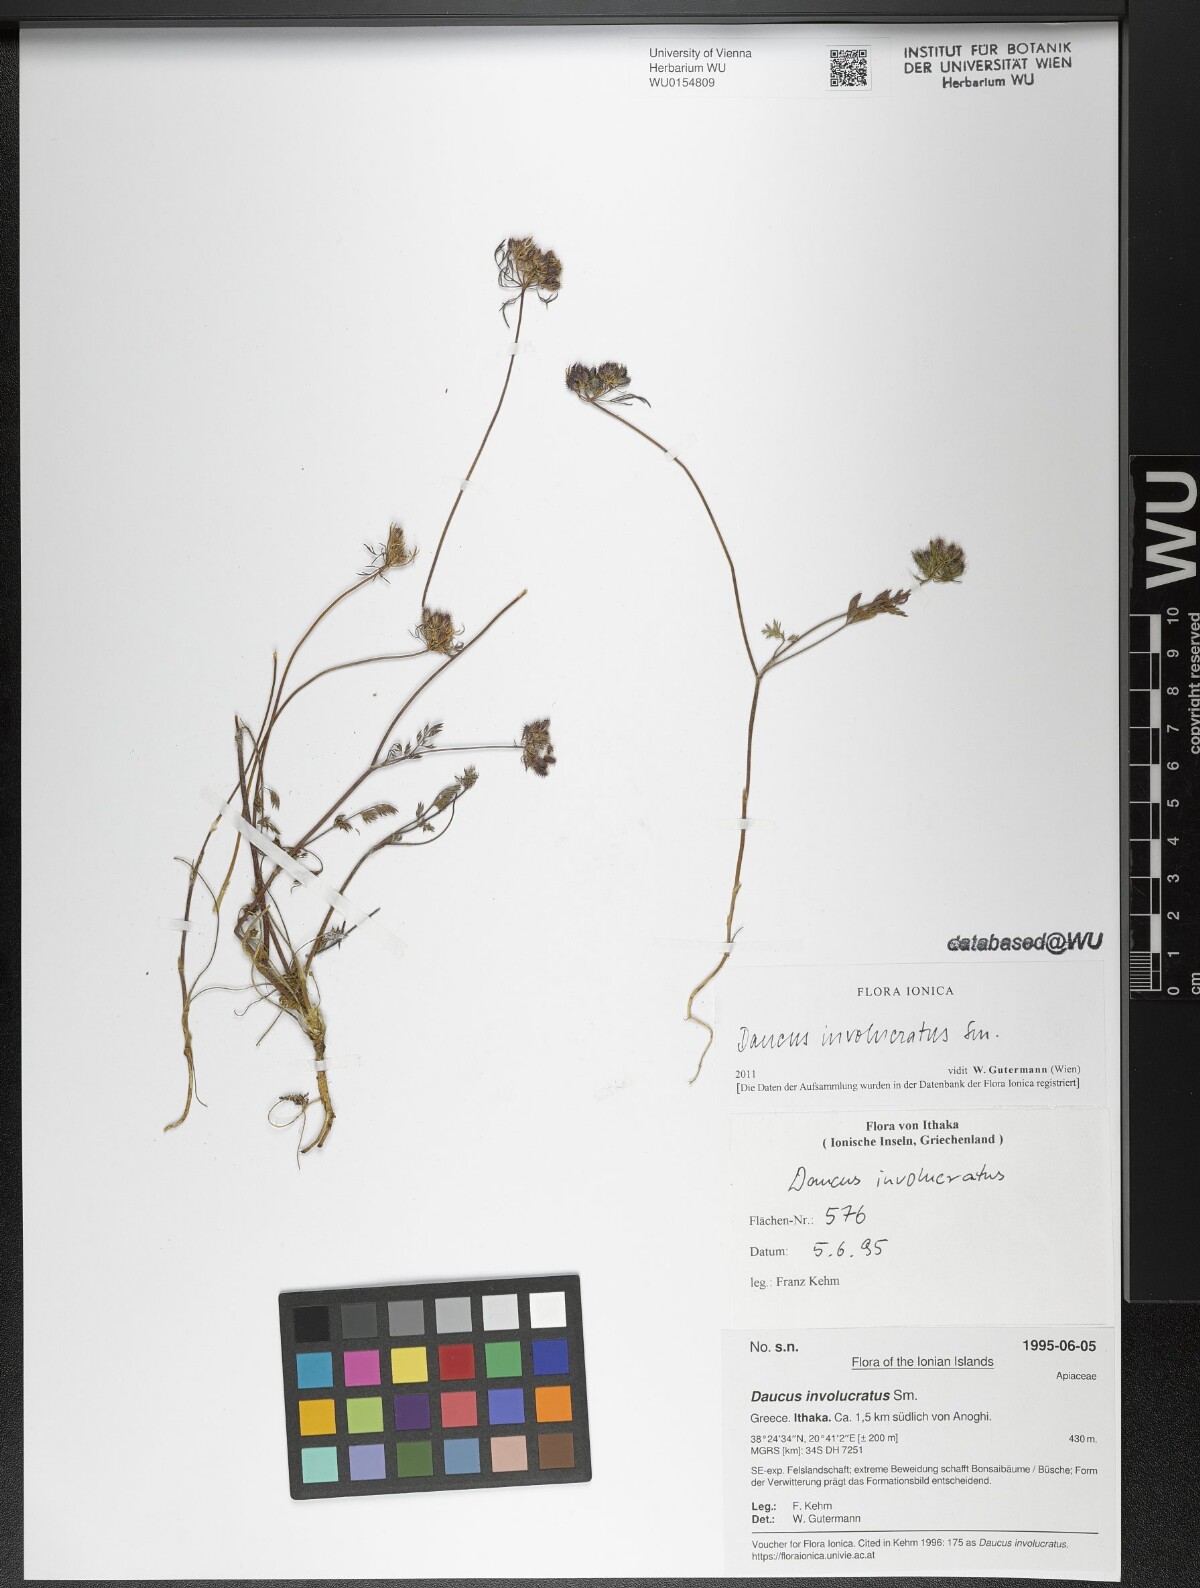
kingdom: Plantae
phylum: Tracheophyta
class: Magnoliopsida
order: Apiales
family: Apiaceae
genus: Daucus
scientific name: Daucus involucratus
